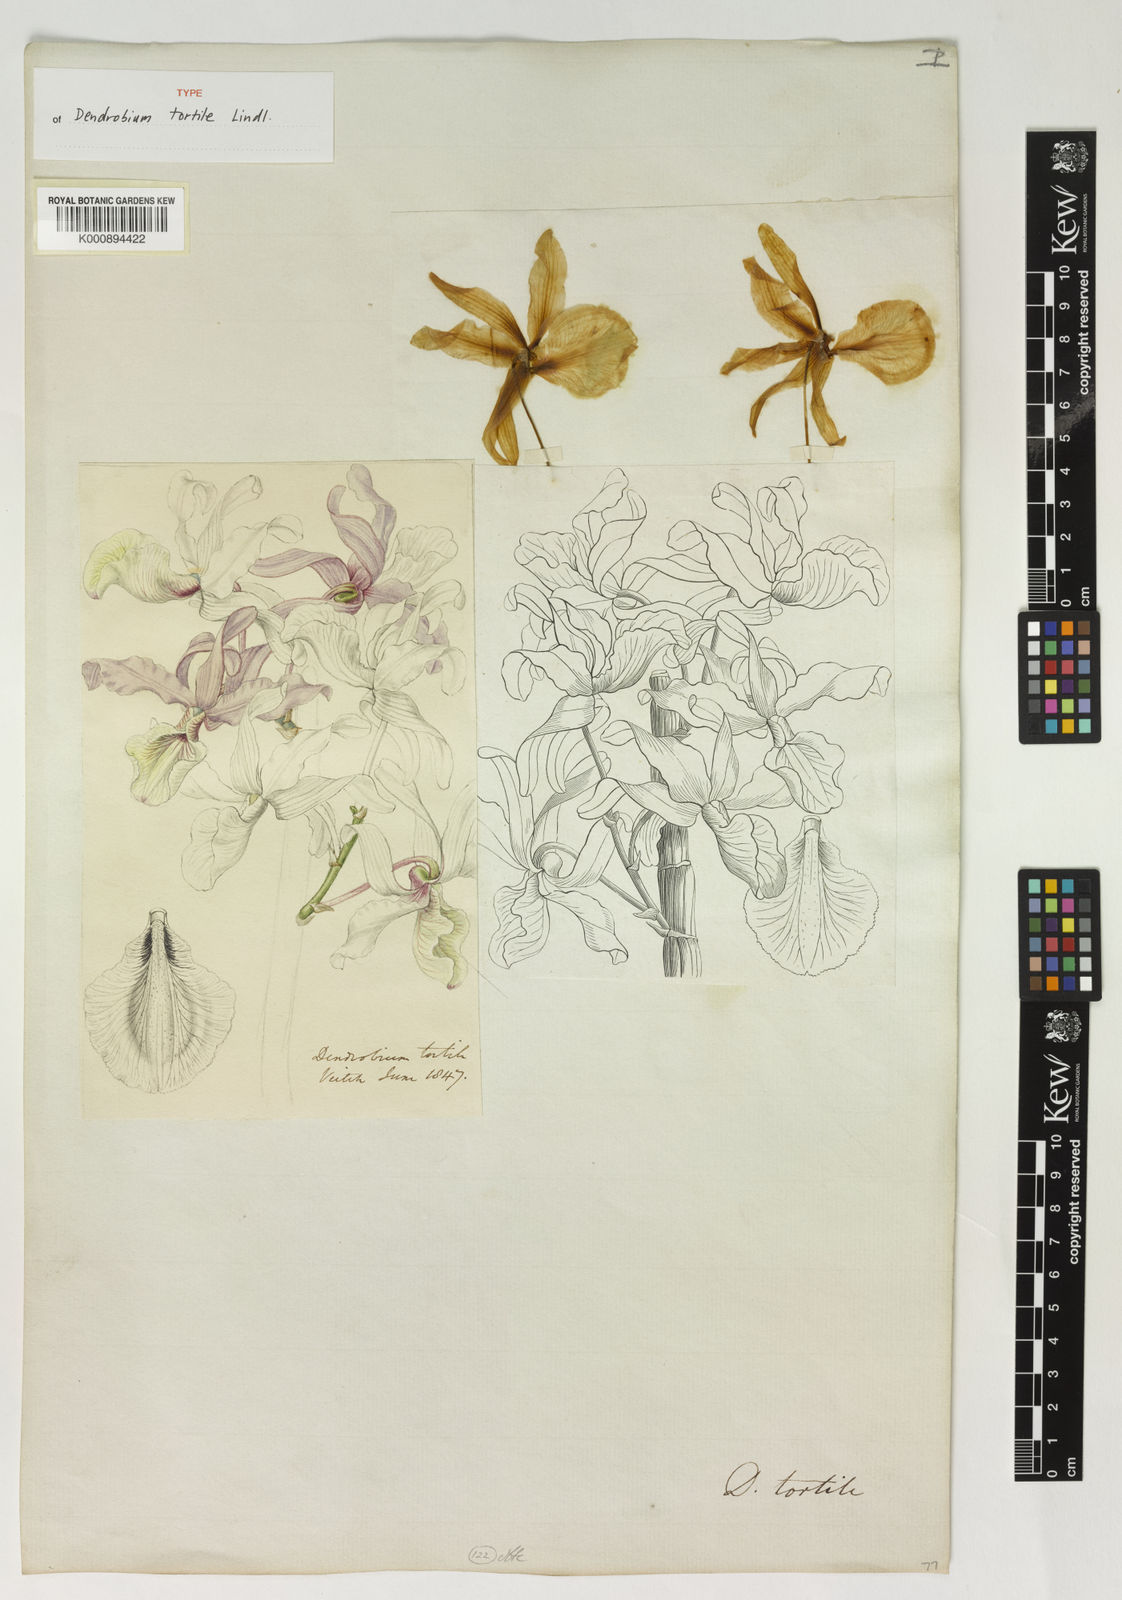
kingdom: Plantae
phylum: Tracheophyta
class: Liliopsida
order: Asparagales
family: Orchidaceae
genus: Dendrobium
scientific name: Dendrobium tortile
